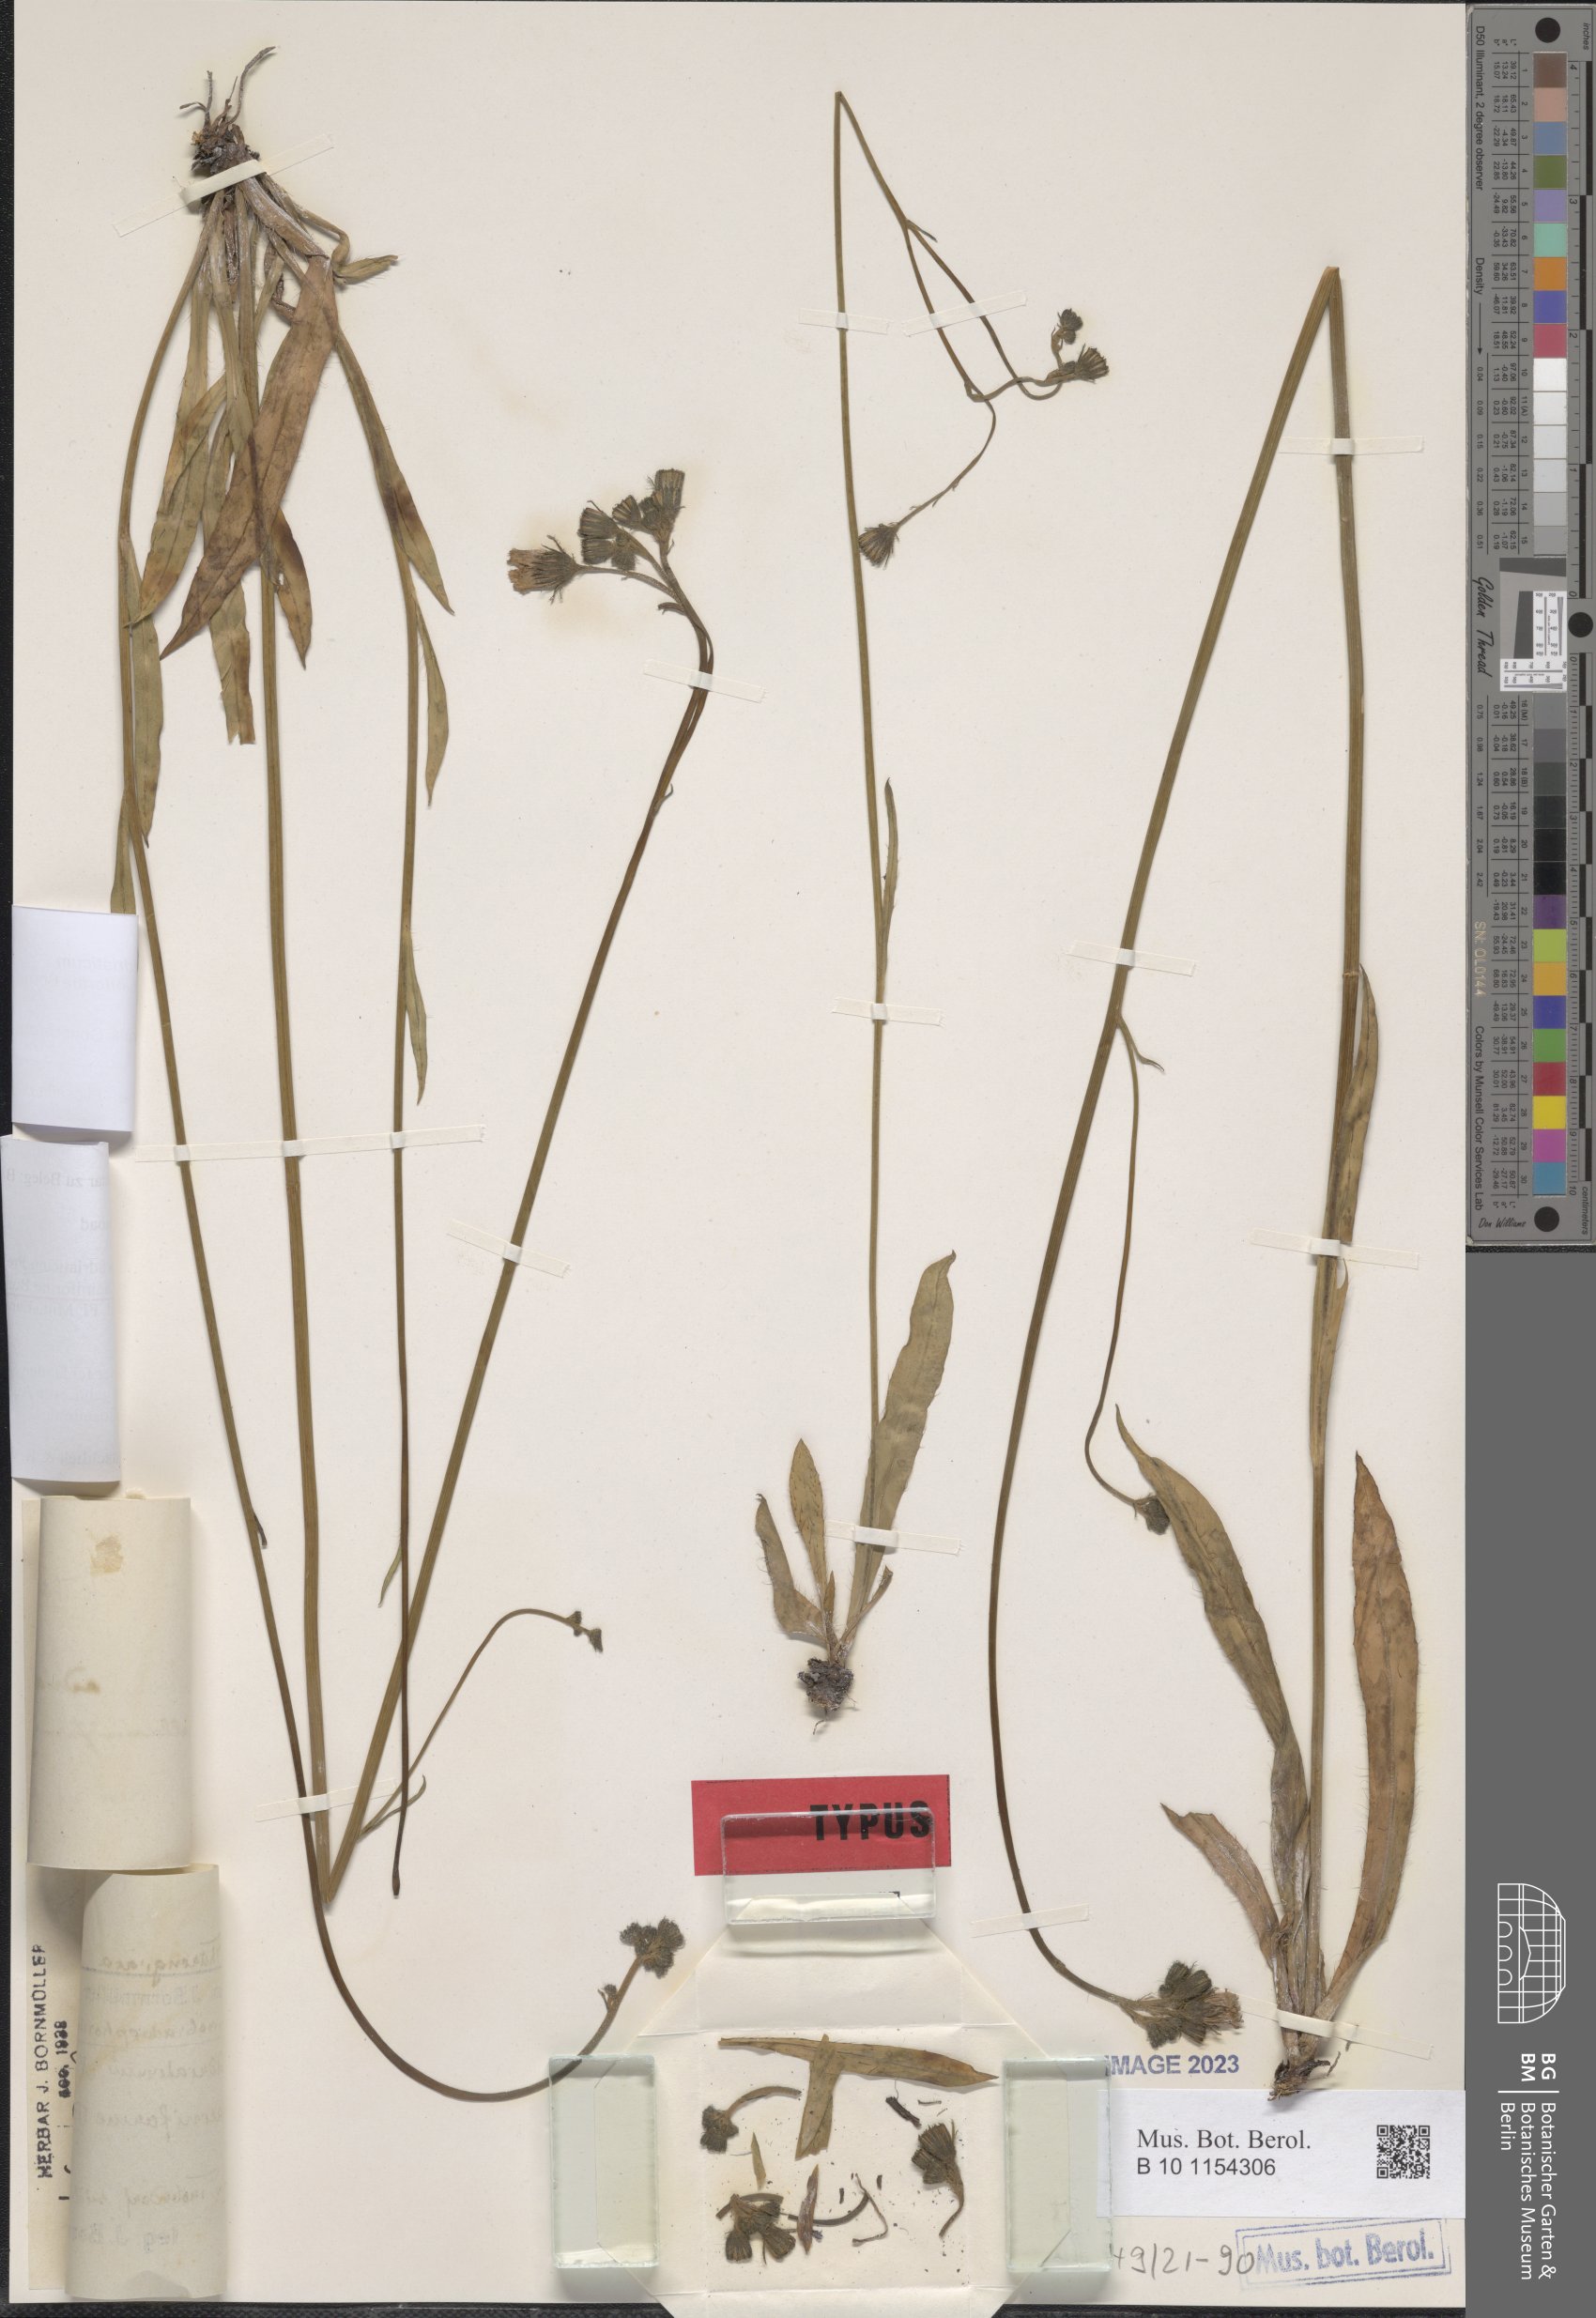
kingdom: Plantae
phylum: Tracheophyta
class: Magnoliopsida
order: Asterales
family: Asteraceae
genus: Pilosella
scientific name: Pilosella visianii
